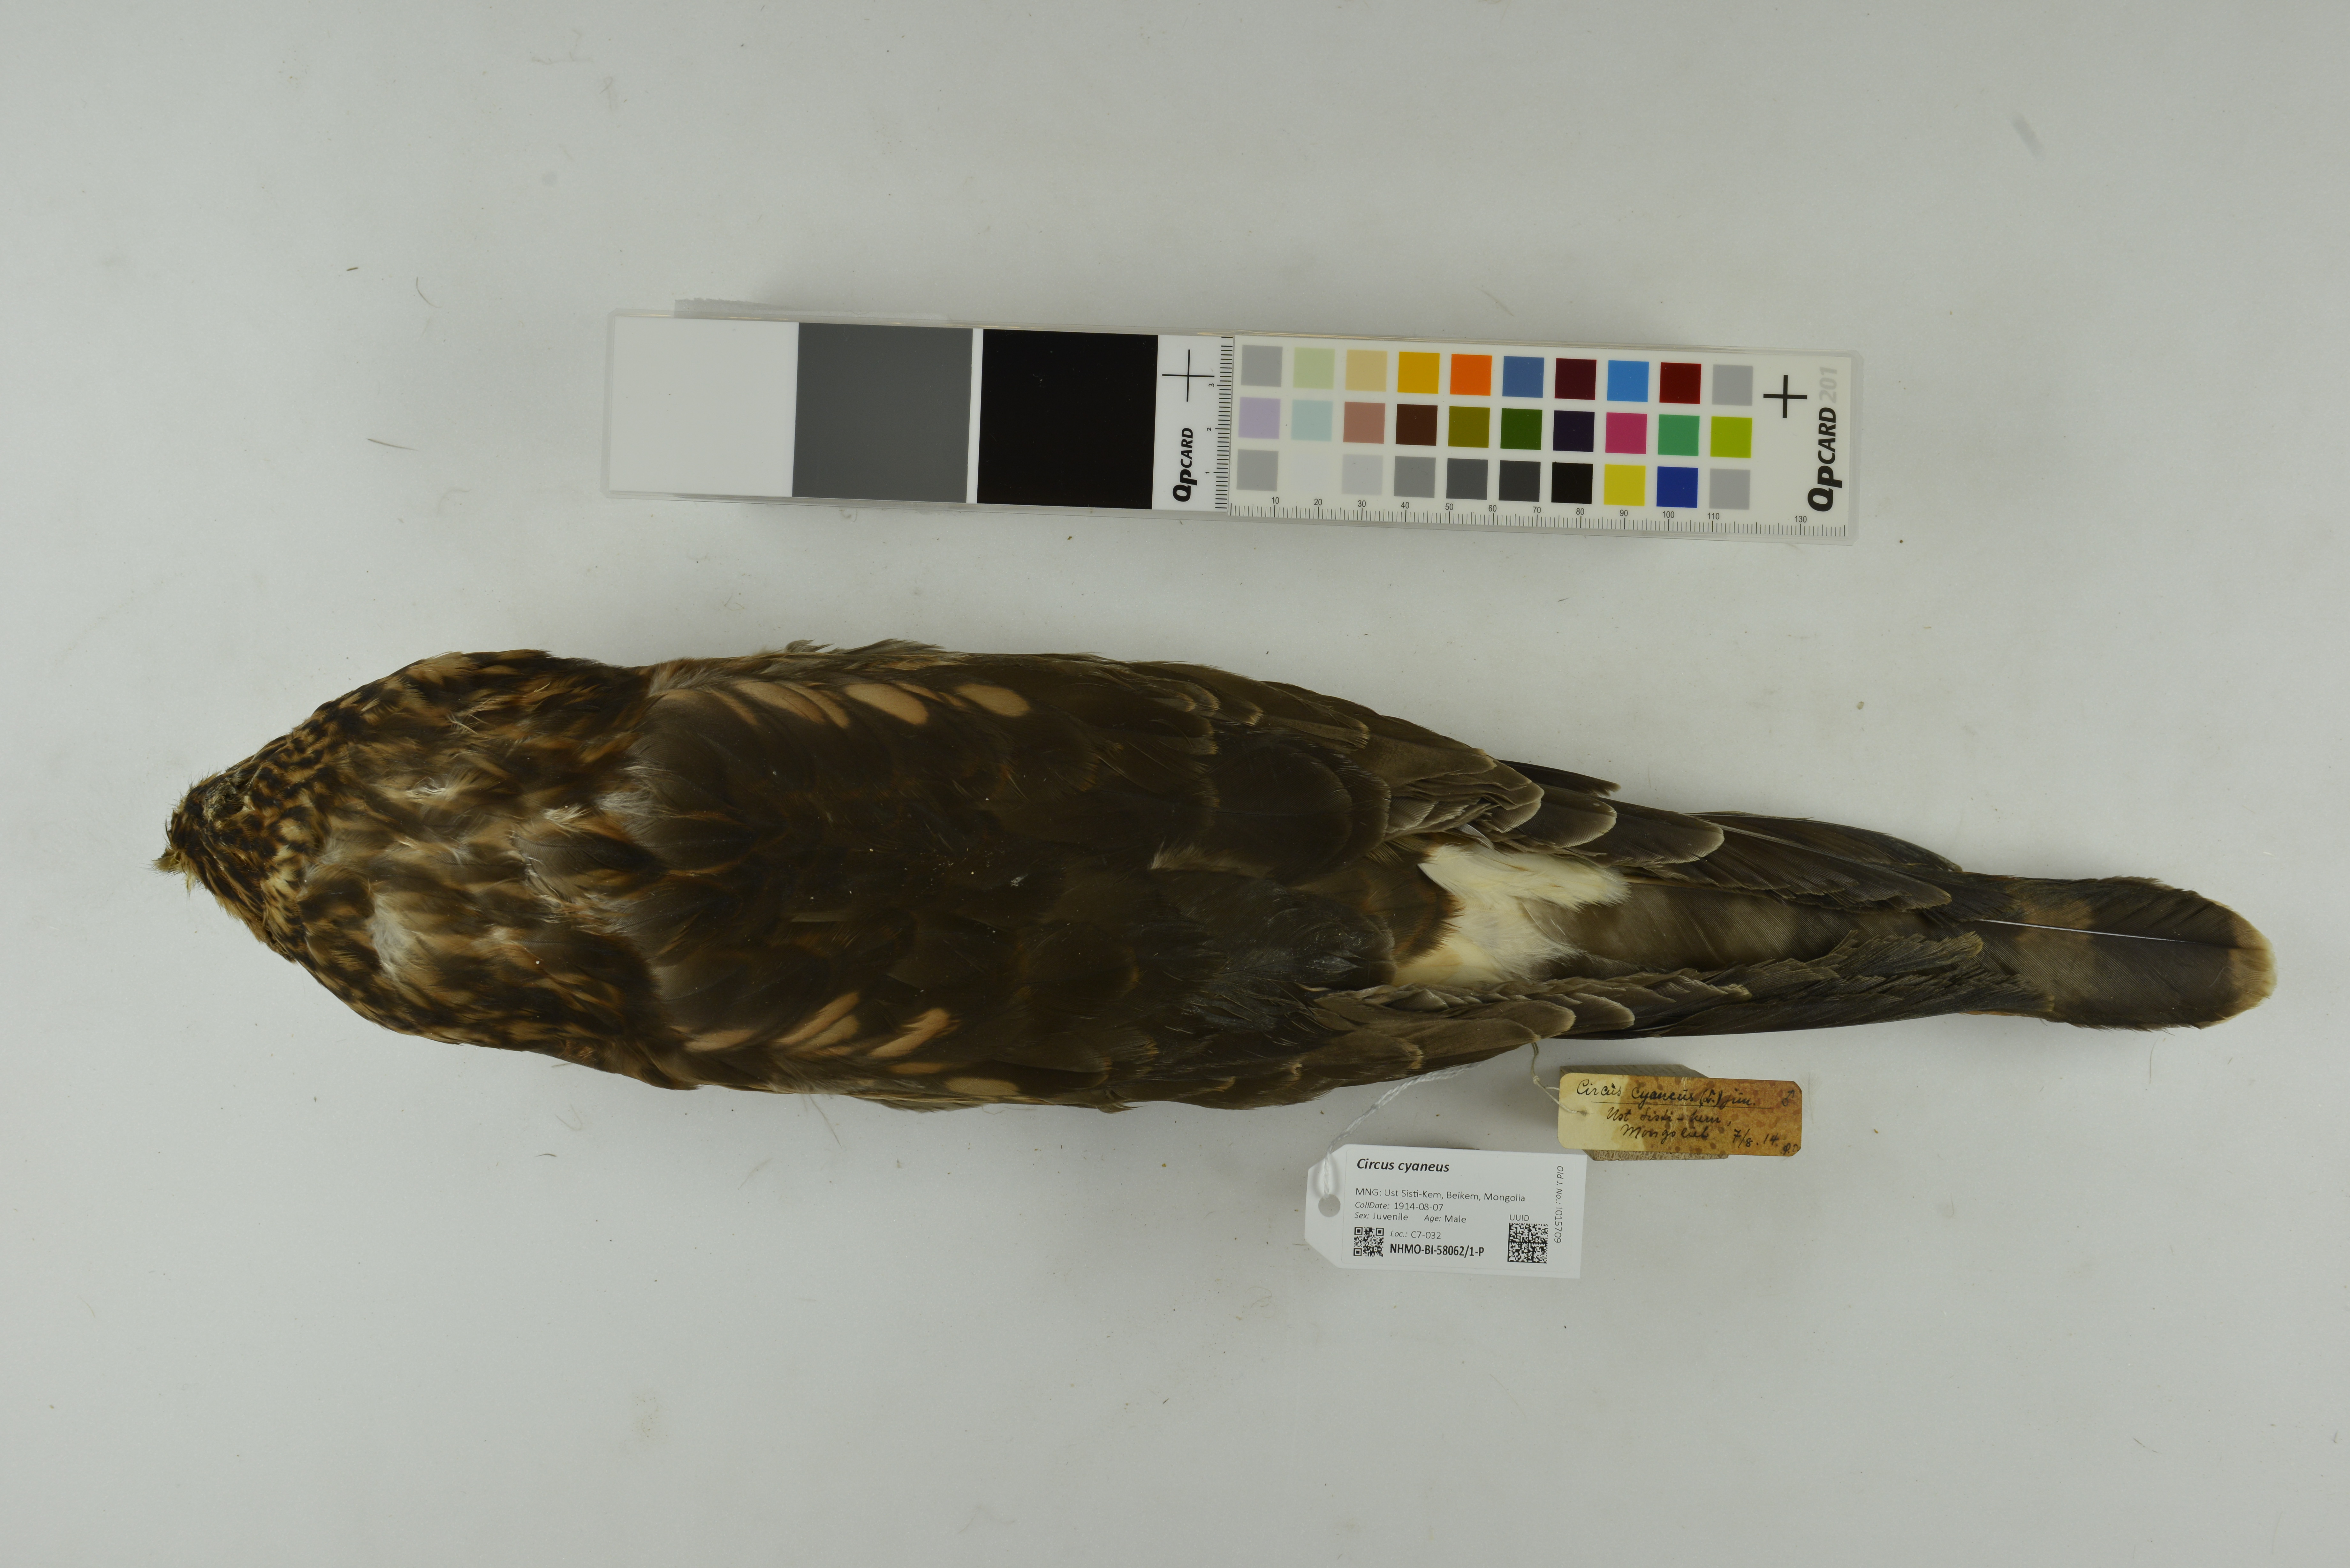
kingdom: Animalia
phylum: Chordata
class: Aves
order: Accipitriformes
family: Accipitridae
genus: Circus
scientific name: Circus cyaneus
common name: Hen harrier
